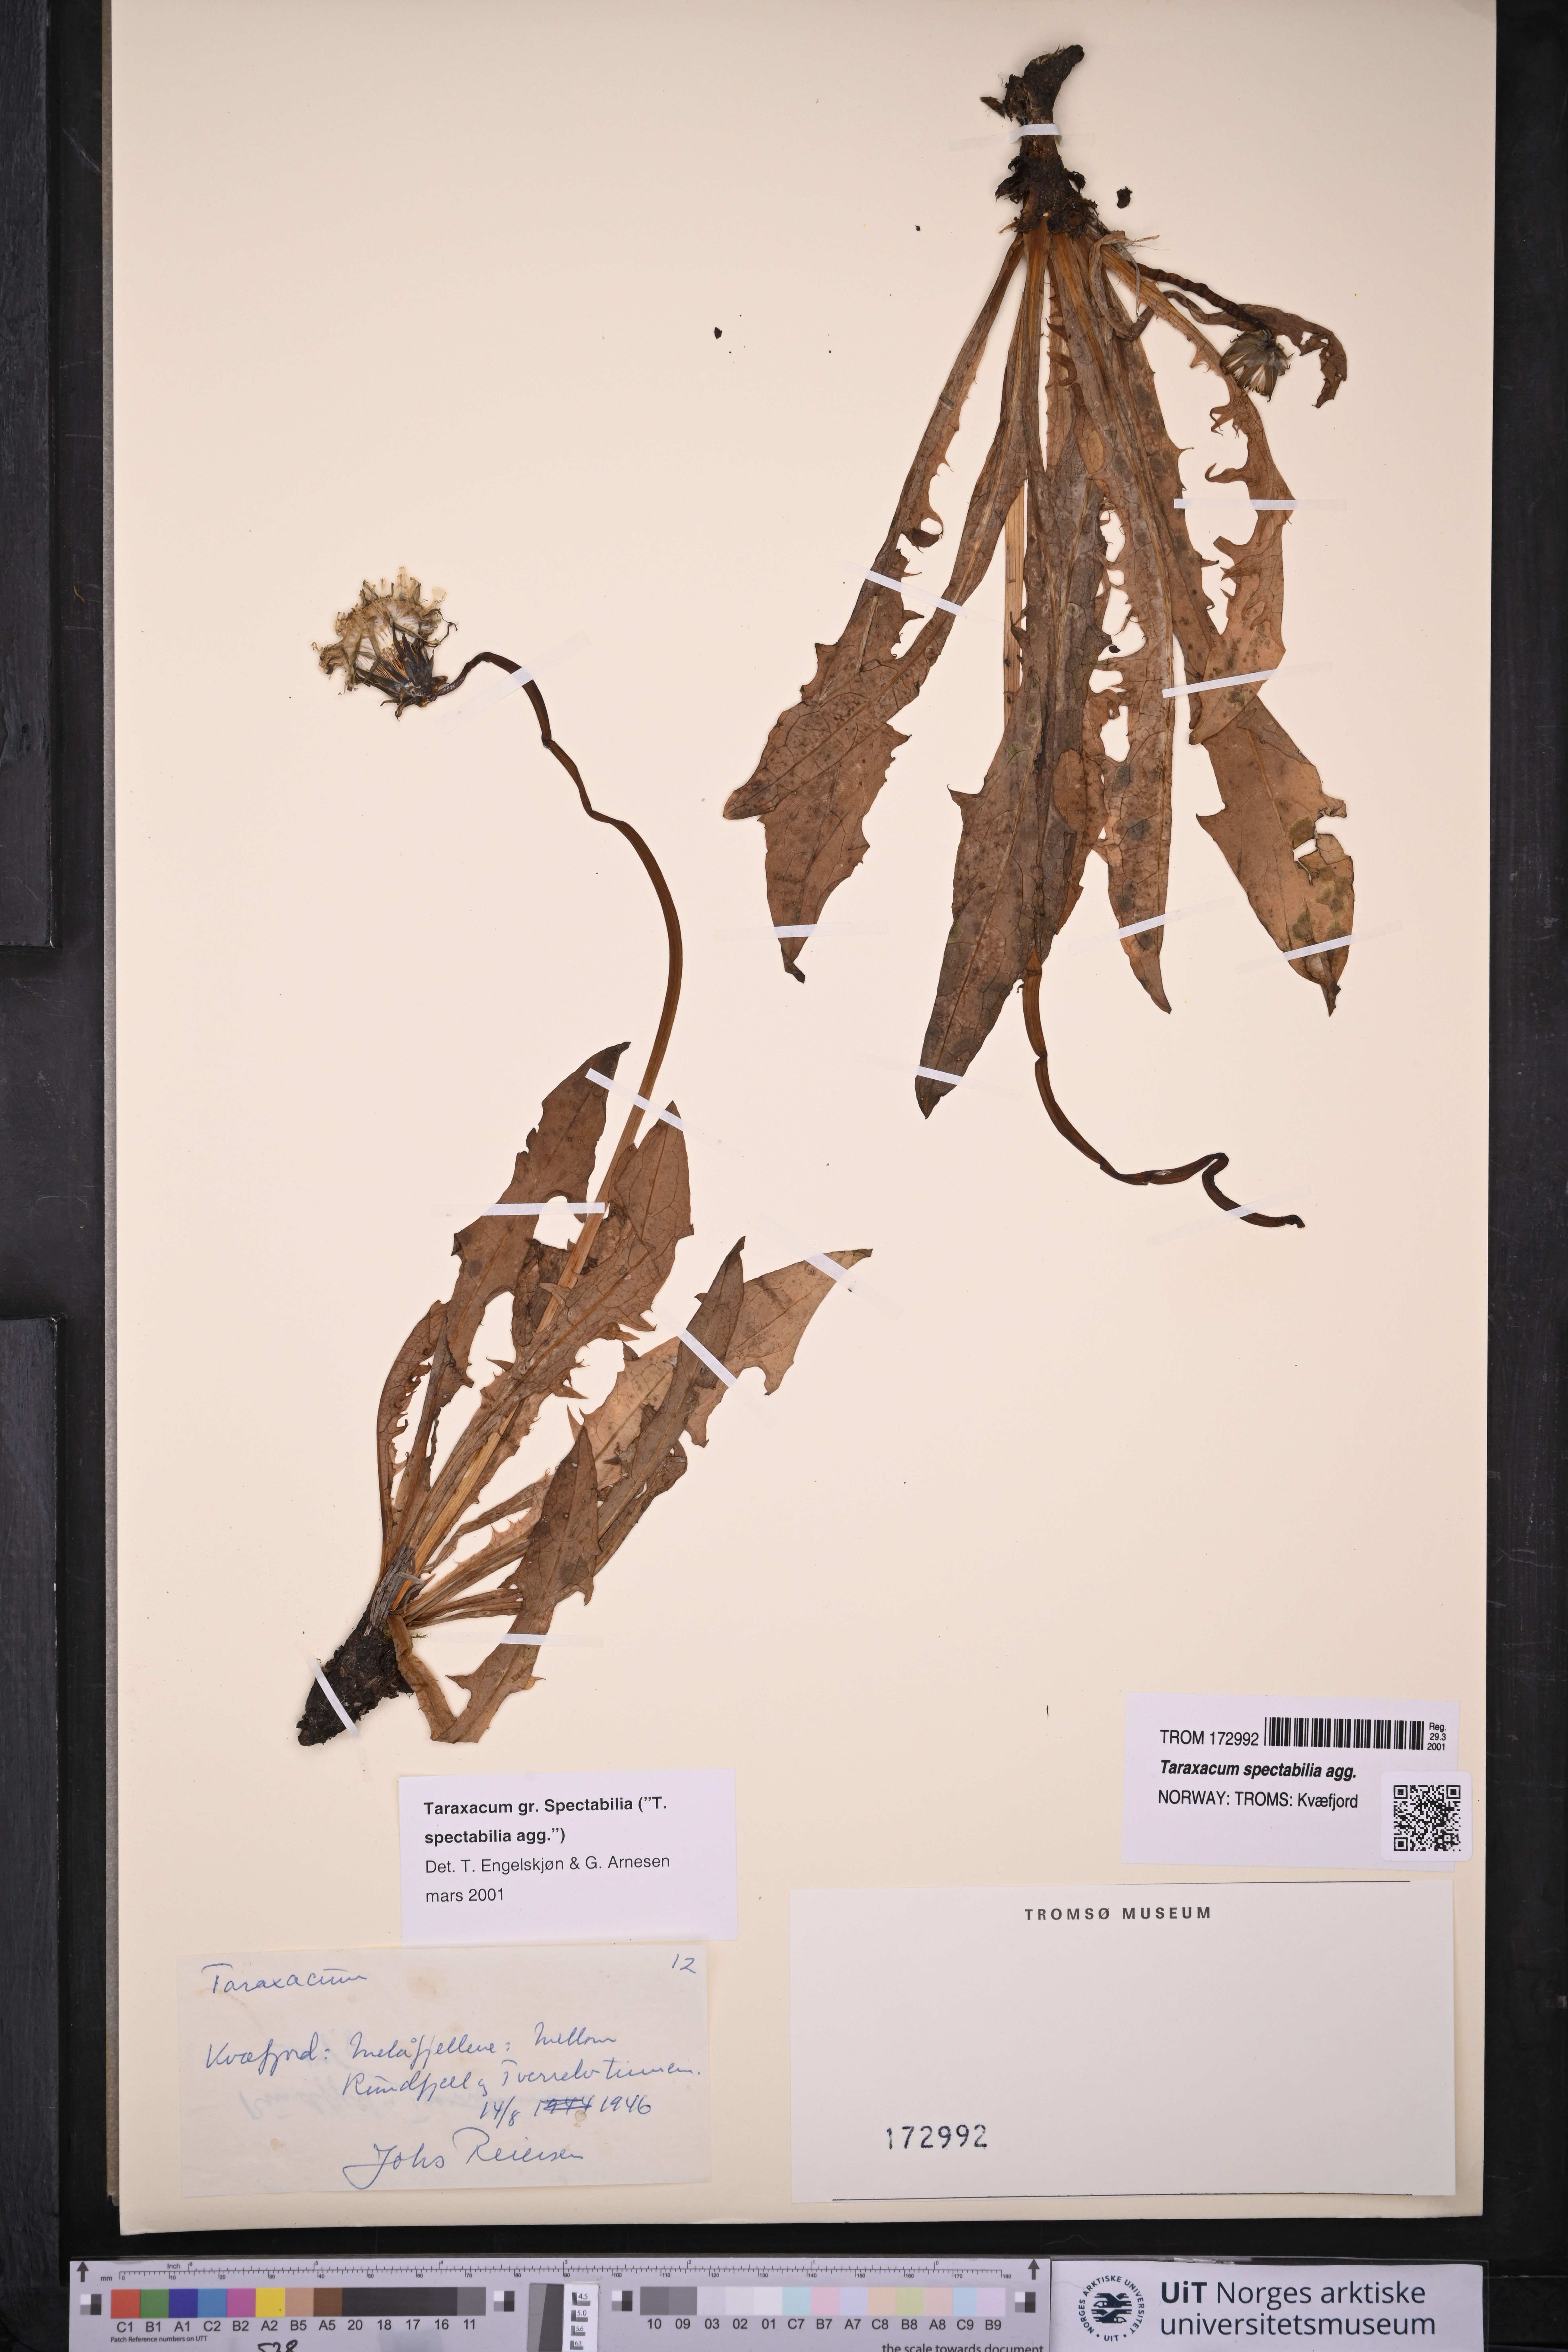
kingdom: Plantae
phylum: Tracheophyta
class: Magnoliopsida
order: Asterales
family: Asteraceae
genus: Taraxacum
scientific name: Taraxacum
